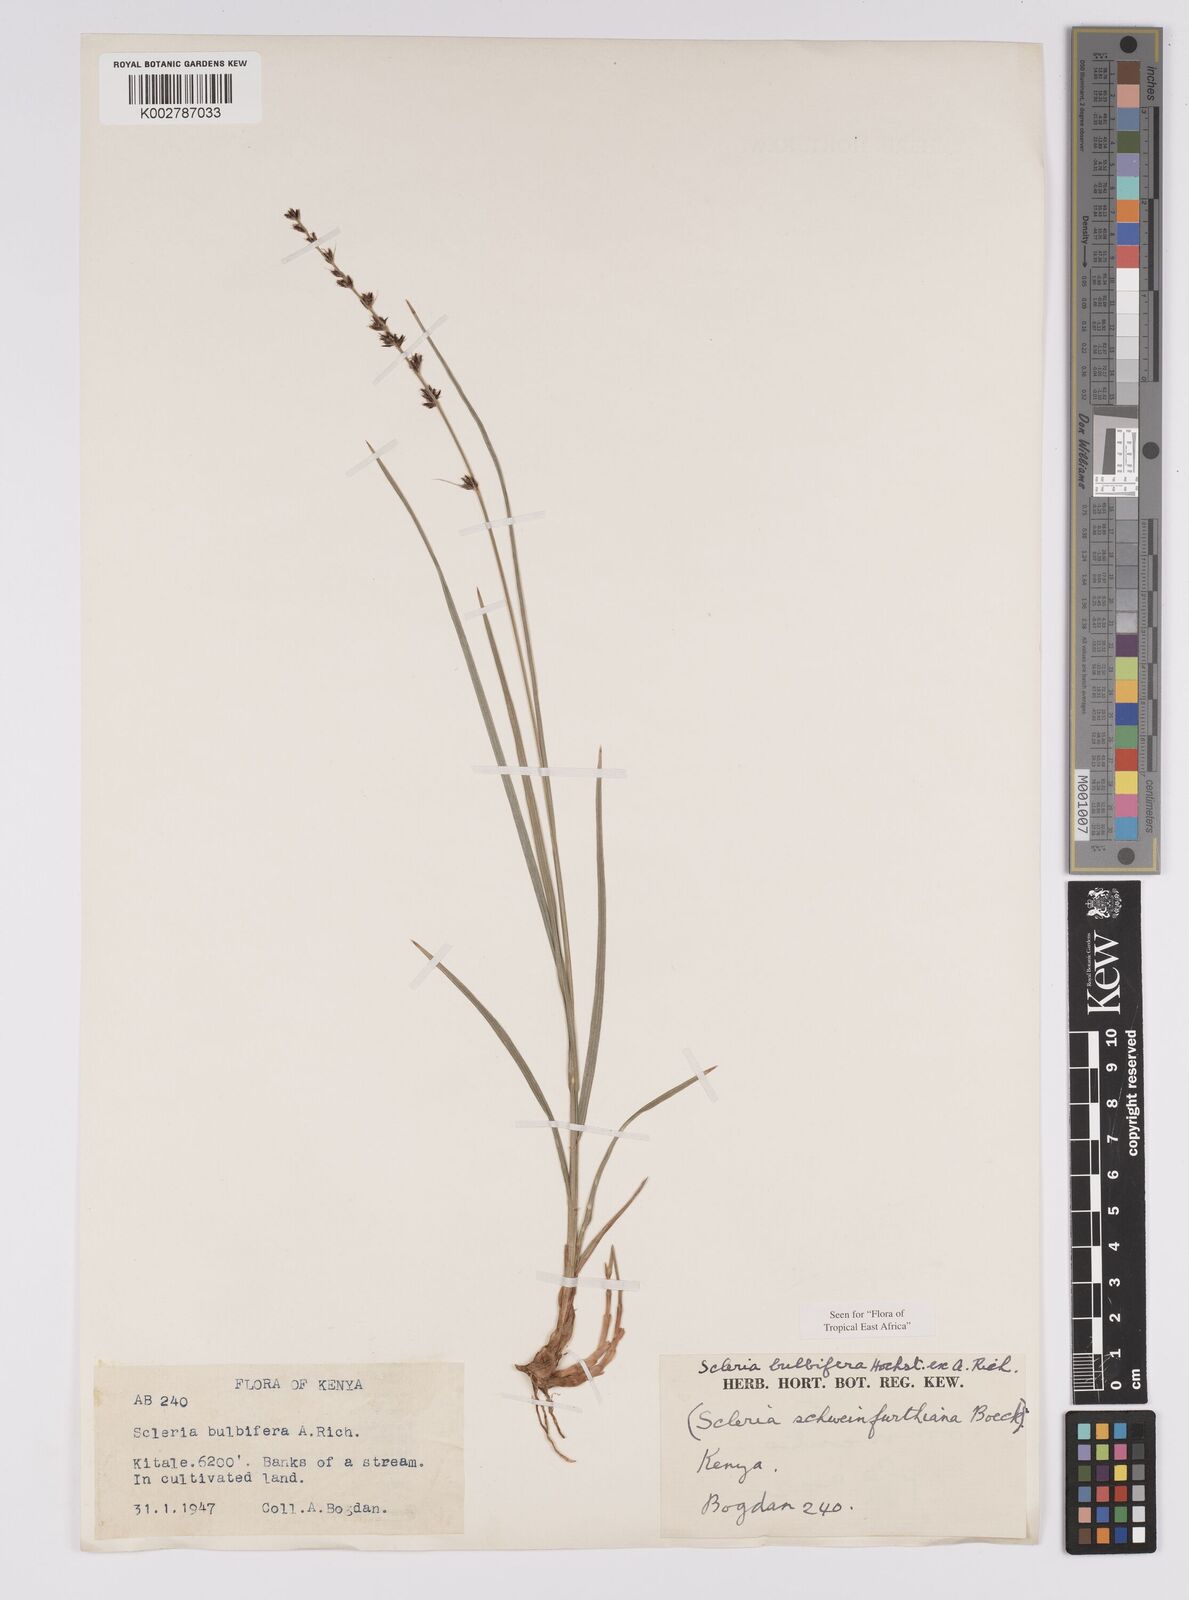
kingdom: Plantae
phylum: Tracheophyta
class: Liliopsida
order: Poales
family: Cyperaceae
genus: Scleria
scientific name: Scleria bulbifera
